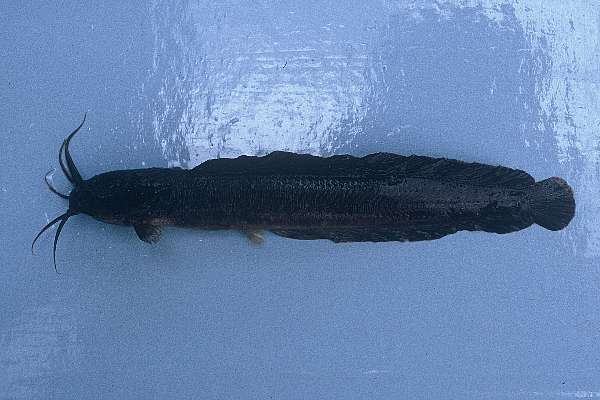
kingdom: Animalia
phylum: Chordata
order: Siluriformes
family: Clariidae
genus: Clarias
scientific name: Clarias theodorae
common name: Snake catfish
